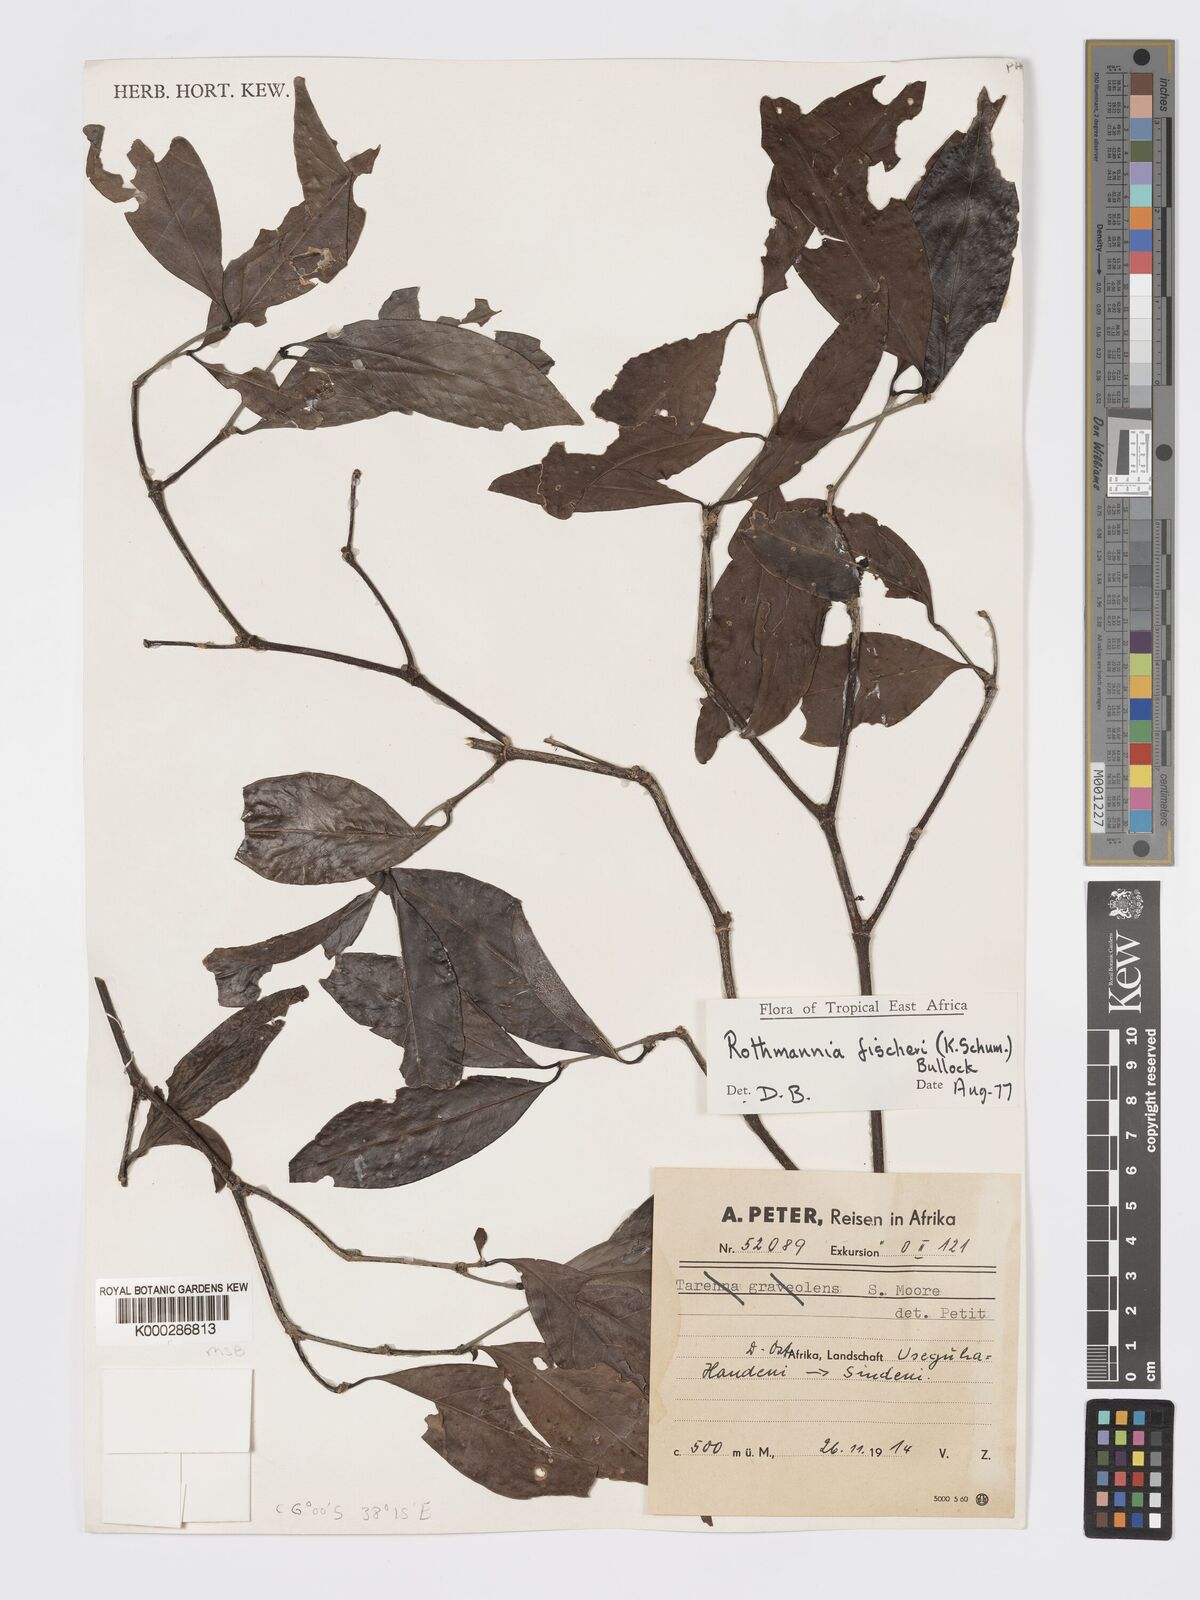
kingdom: Plantae
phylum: Tracheophyta
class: Magnoliopsida
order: Gentianales
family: Rubiaceae
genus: Rothmannia
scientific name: Rothmannia ravae
